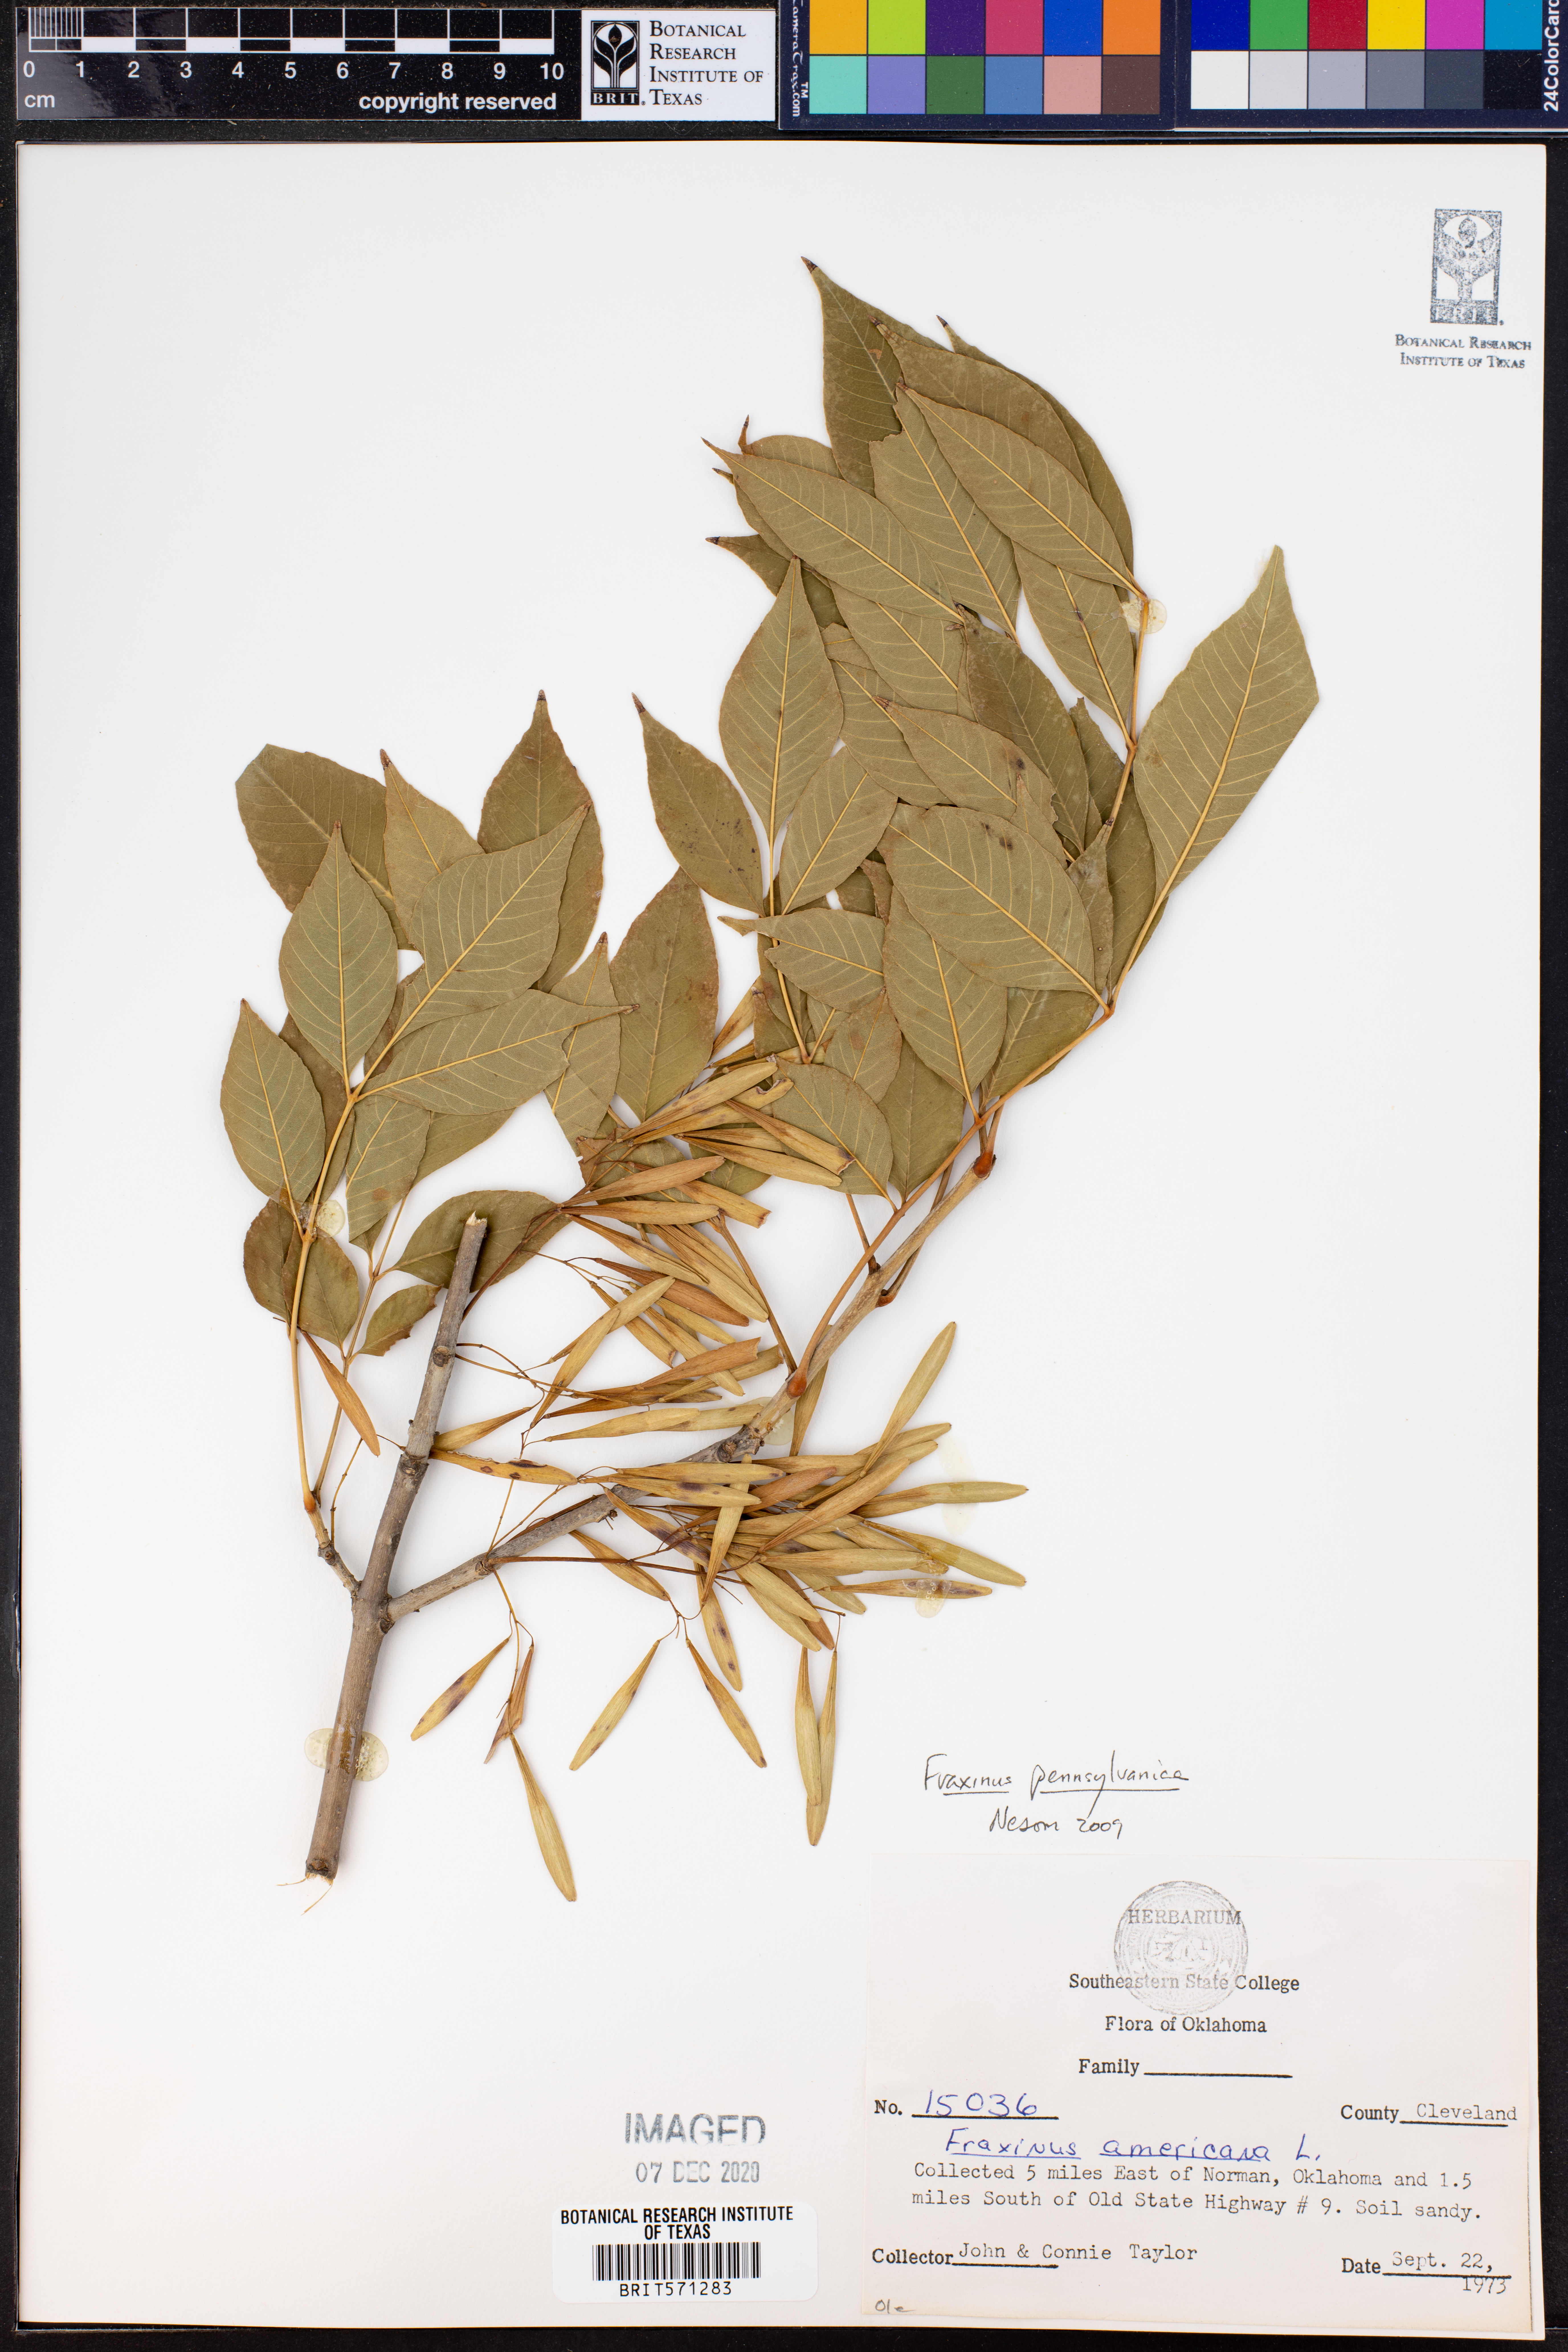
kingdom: Plantae
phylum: Tracheophyta
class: Magnoliopsida
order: Lamiales
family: Oleaceae
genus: Fraxinus
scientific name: Fraxinus pennsylvanica
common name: Green ash
